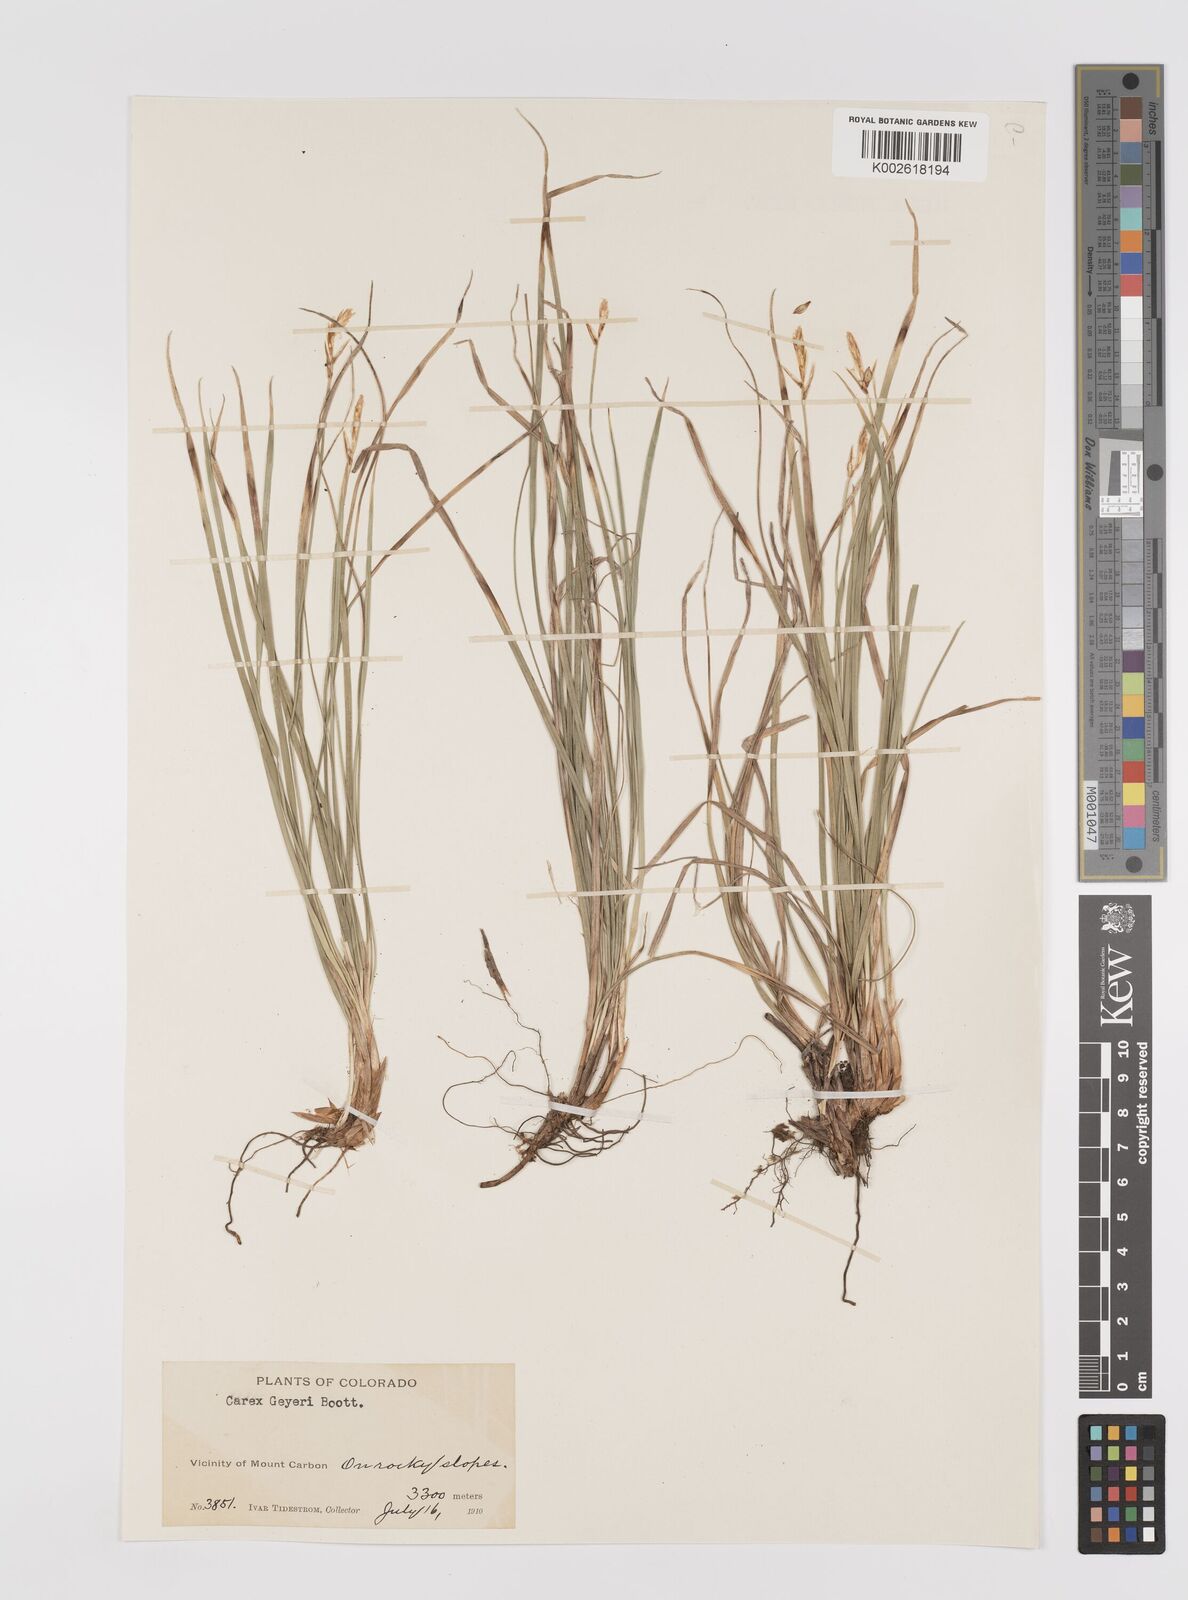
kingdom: Plantae
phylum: Tracheophyta
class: Liliopsida
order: Poales
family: Cyperaceae
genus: Carex
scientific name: Carex geyeri
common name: Elk sedge
